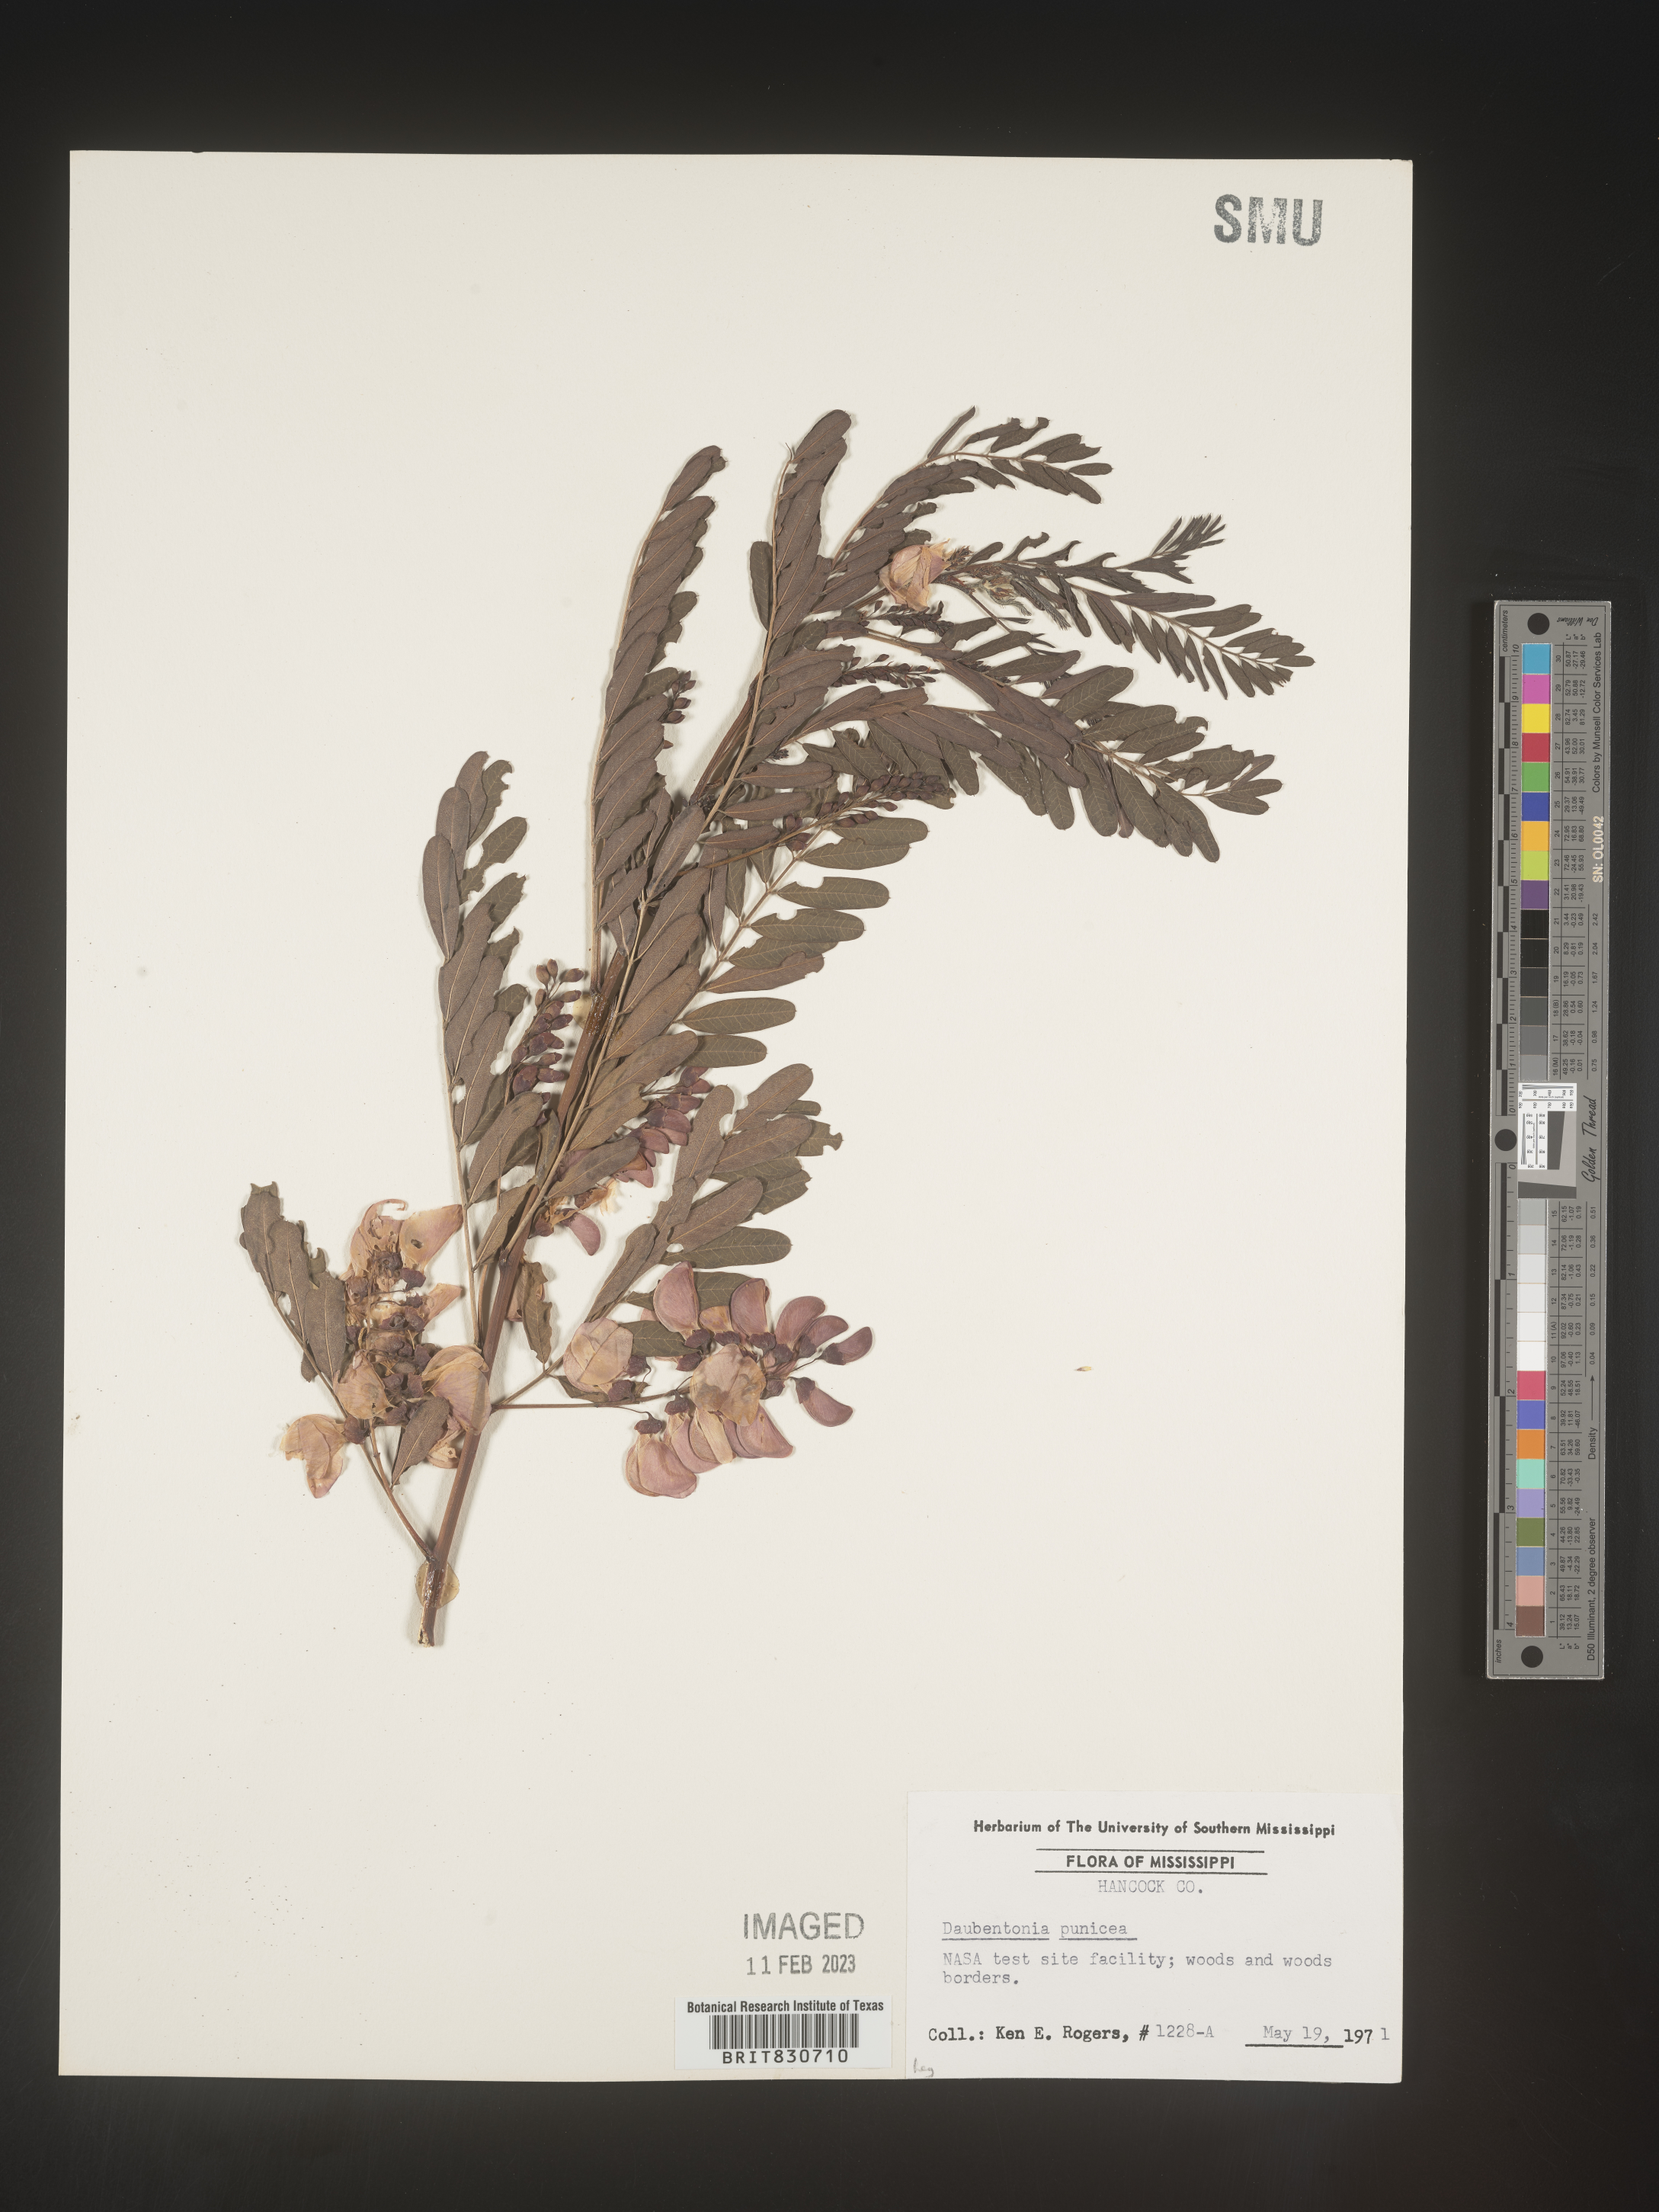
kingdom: Plantae
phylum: Tracheophyta
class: Magnoliopsida
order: Fabales
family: Fabaceae
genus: Sesbania
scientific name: Sesbania punicea
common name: Rattlebox
